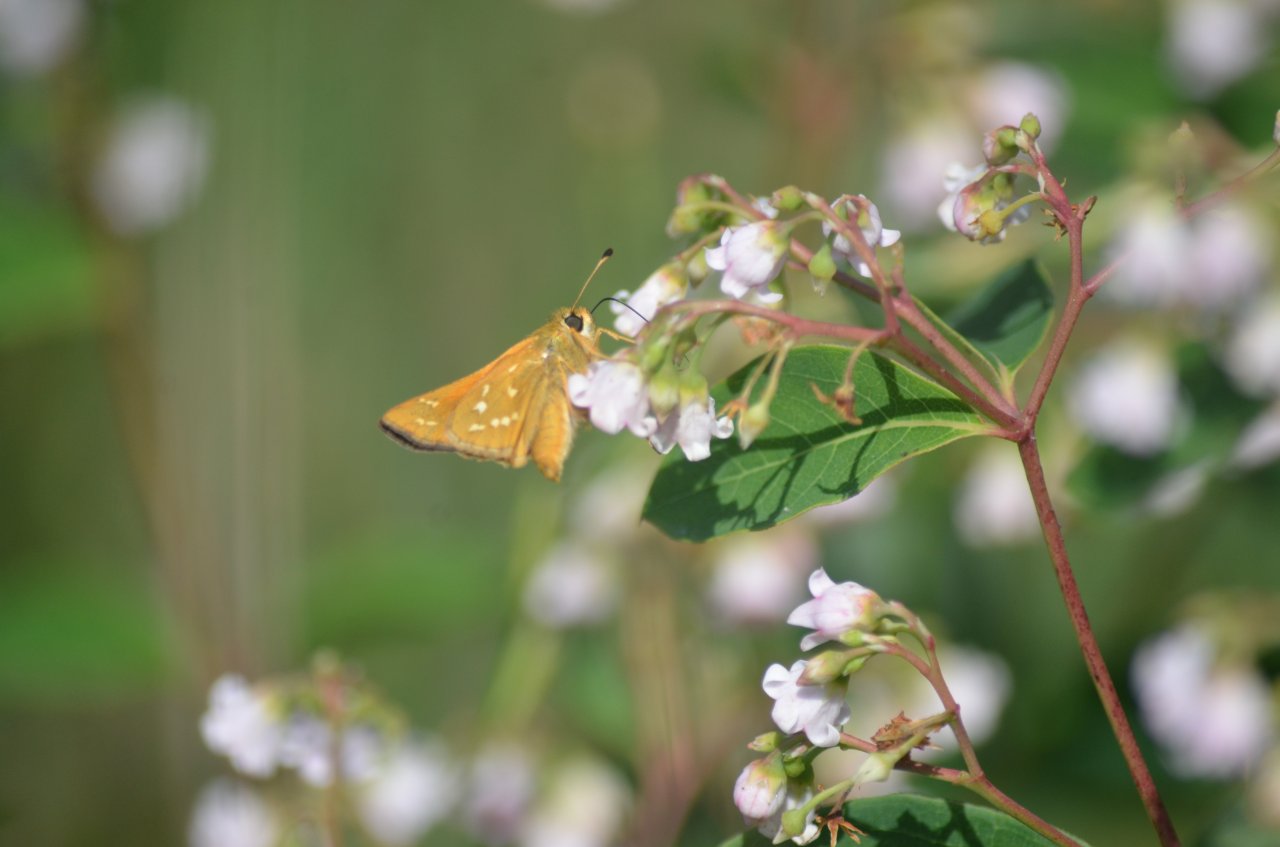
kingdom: Animalia
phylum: Arthropoda
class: Insecta
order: Lepidoptera
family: Hesperiidae
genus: Hesperia
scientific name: Hesperia leonardus
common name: Leonard's Skipper
